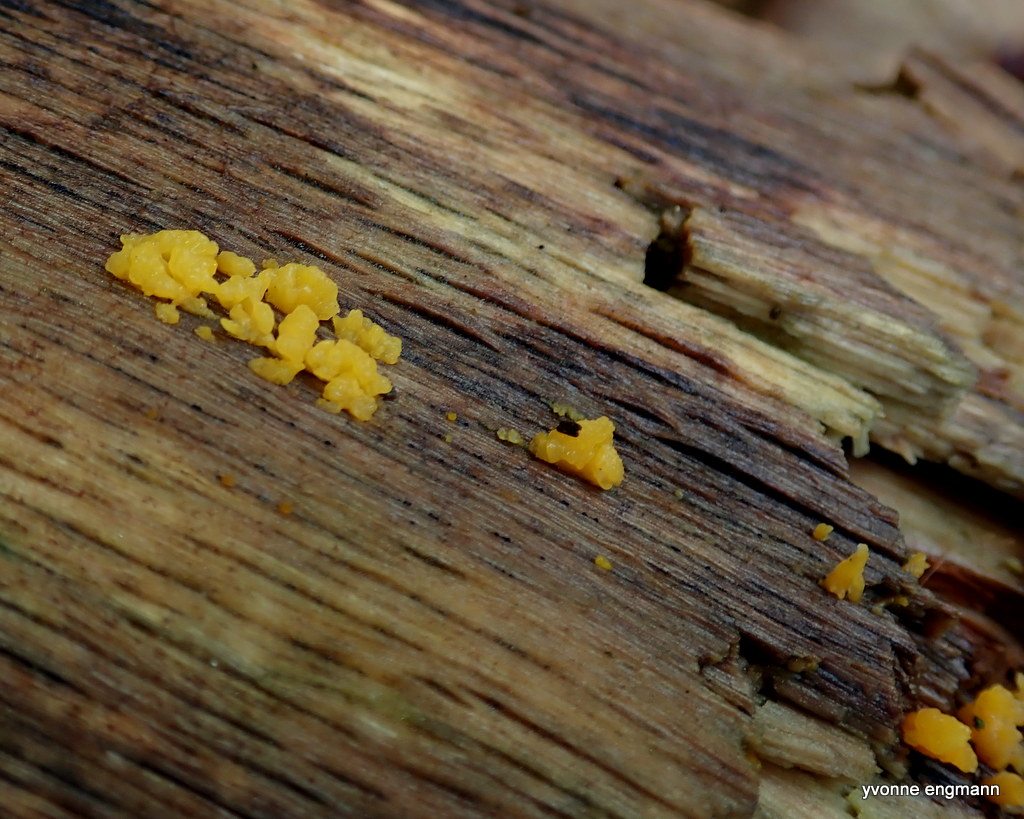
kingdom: Fungi
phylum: Basidiomycota
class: Dacrymycetes
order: Dacrymycetales
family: Dacrymycetaceae
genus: Calocera
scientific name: Calocera
